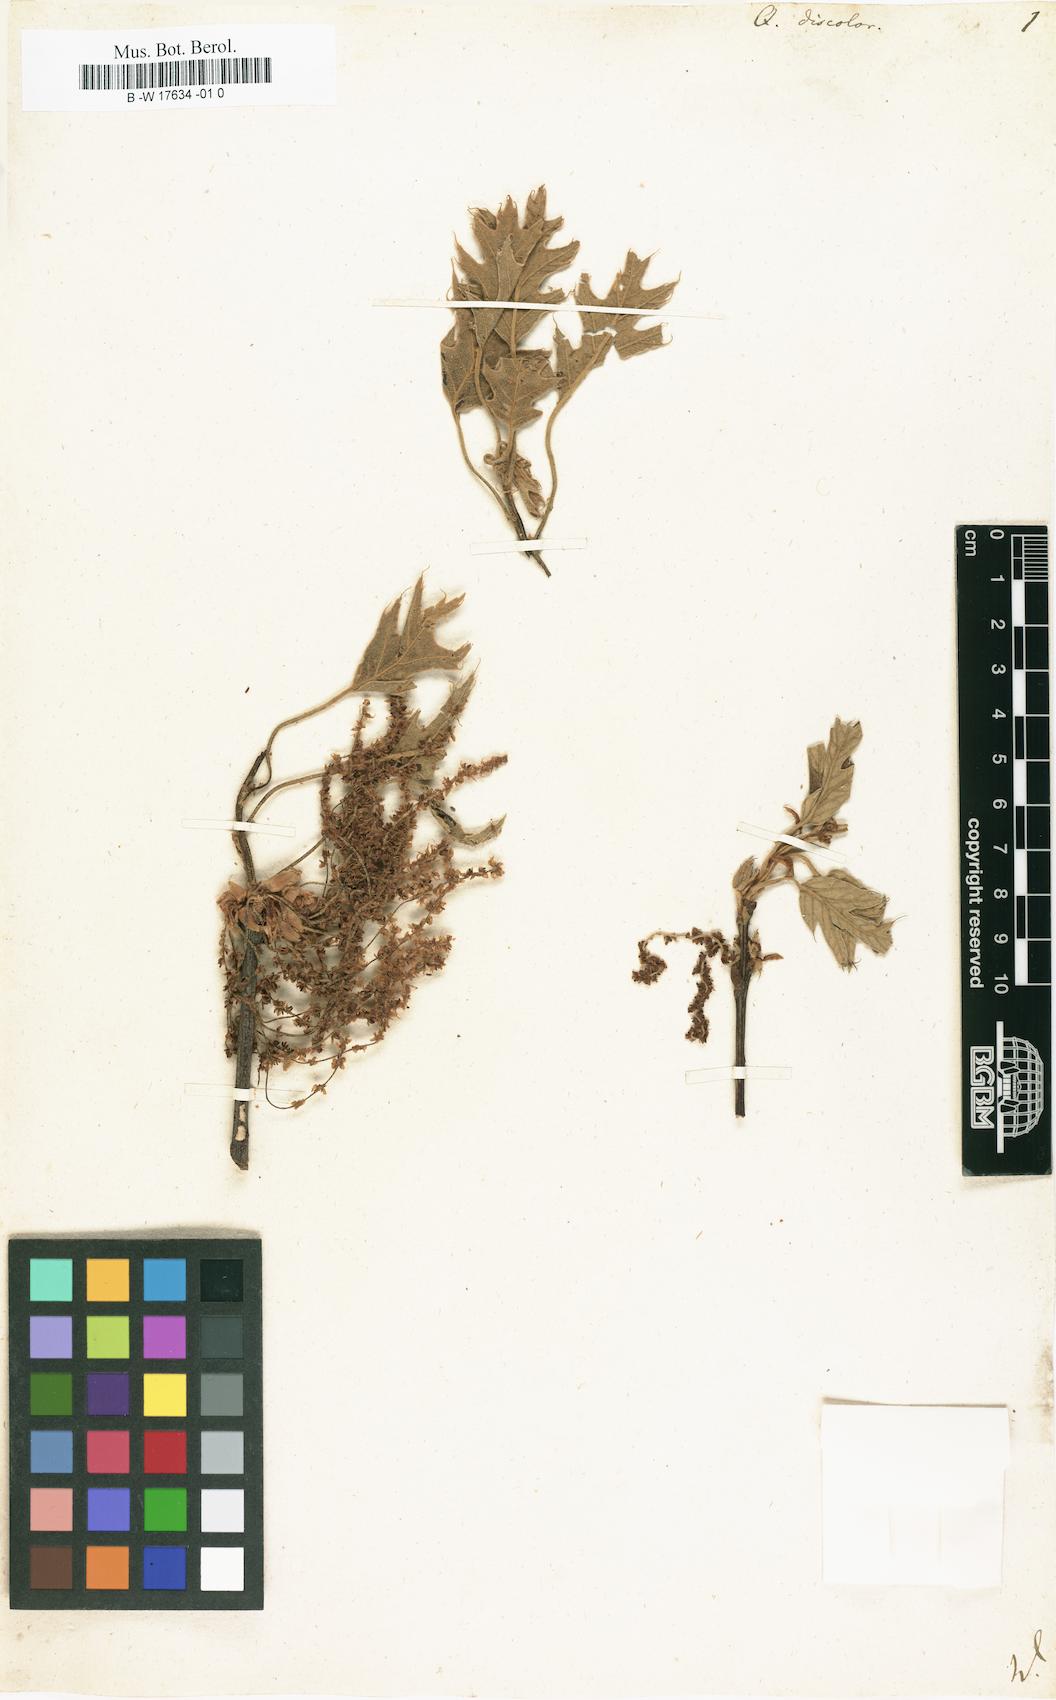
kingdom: Plantae
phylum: Tracheophyta
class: Magnoliopsida
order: Fagales
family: Fagaceae
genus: Quercus
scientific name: Quercus velutina
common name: Black oak
